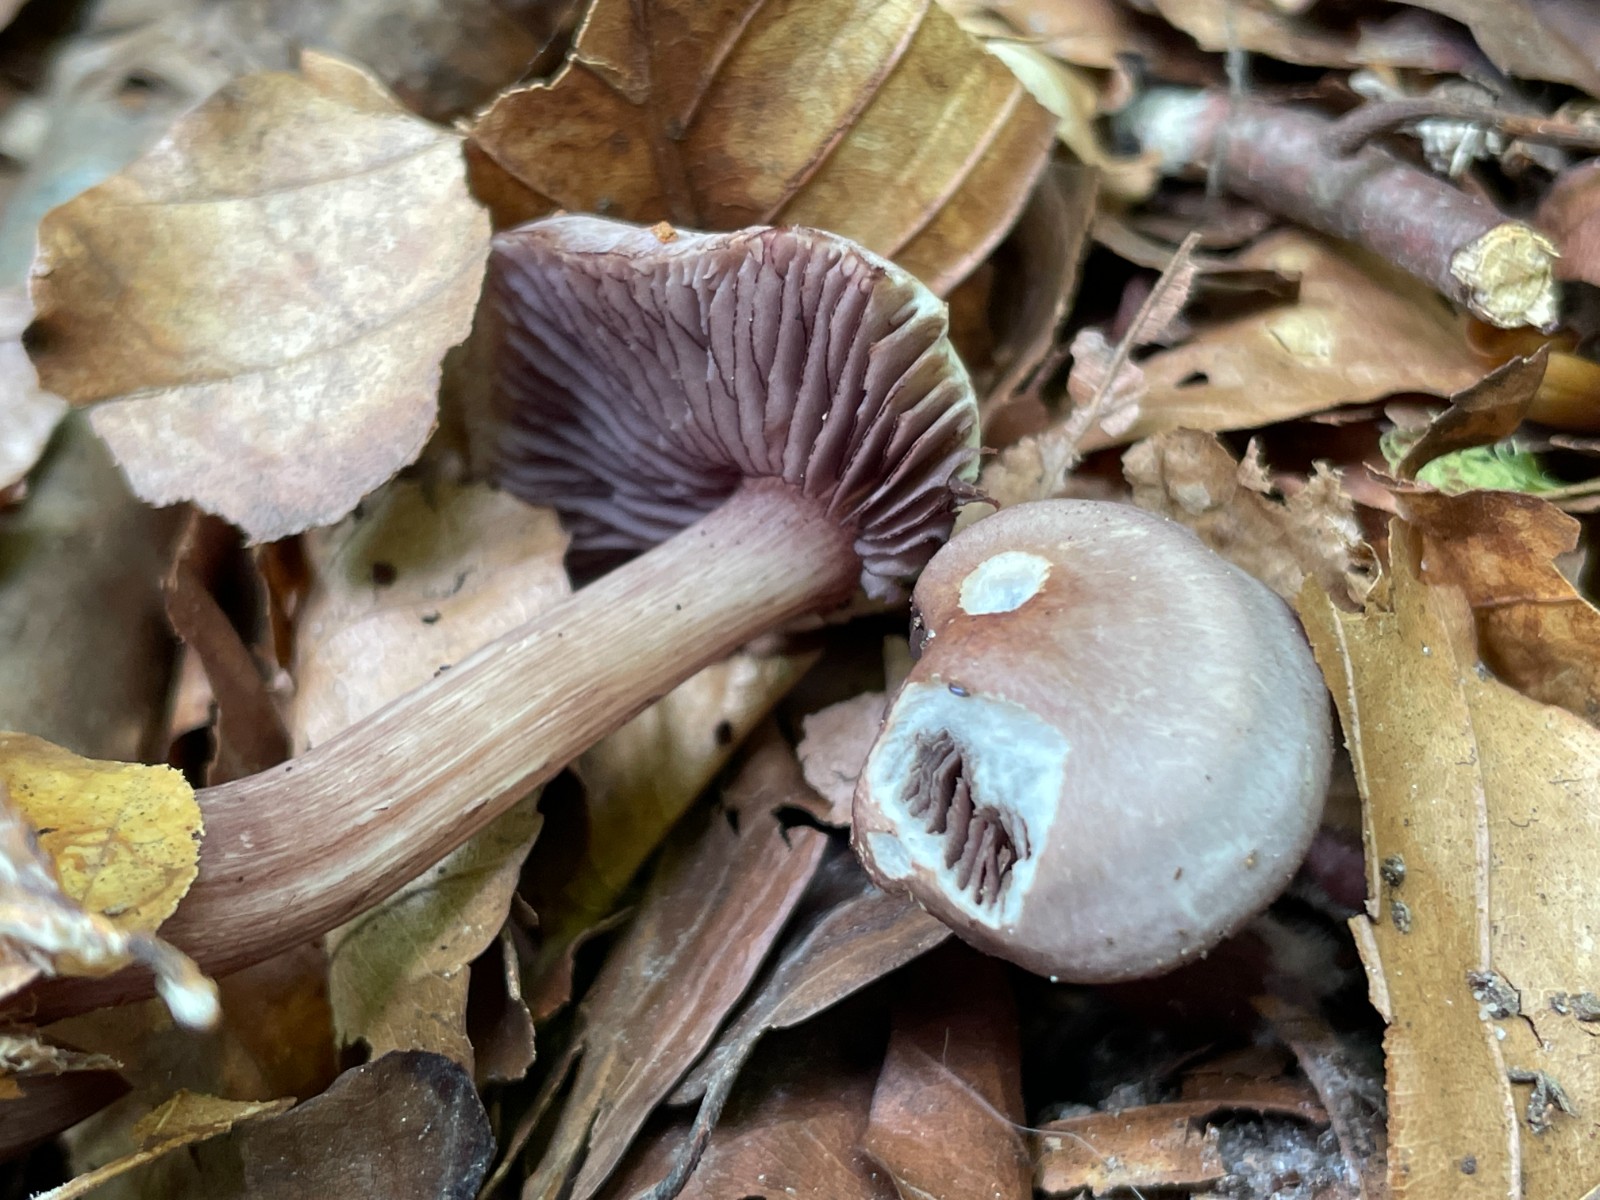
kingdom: Fungi
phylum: Basidiomycota
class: Agaricomycetes
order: Agaricales
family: Mycenaceae
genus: Mycena
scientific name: Mycena pelianthina
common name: mørkbladet huesvamp
